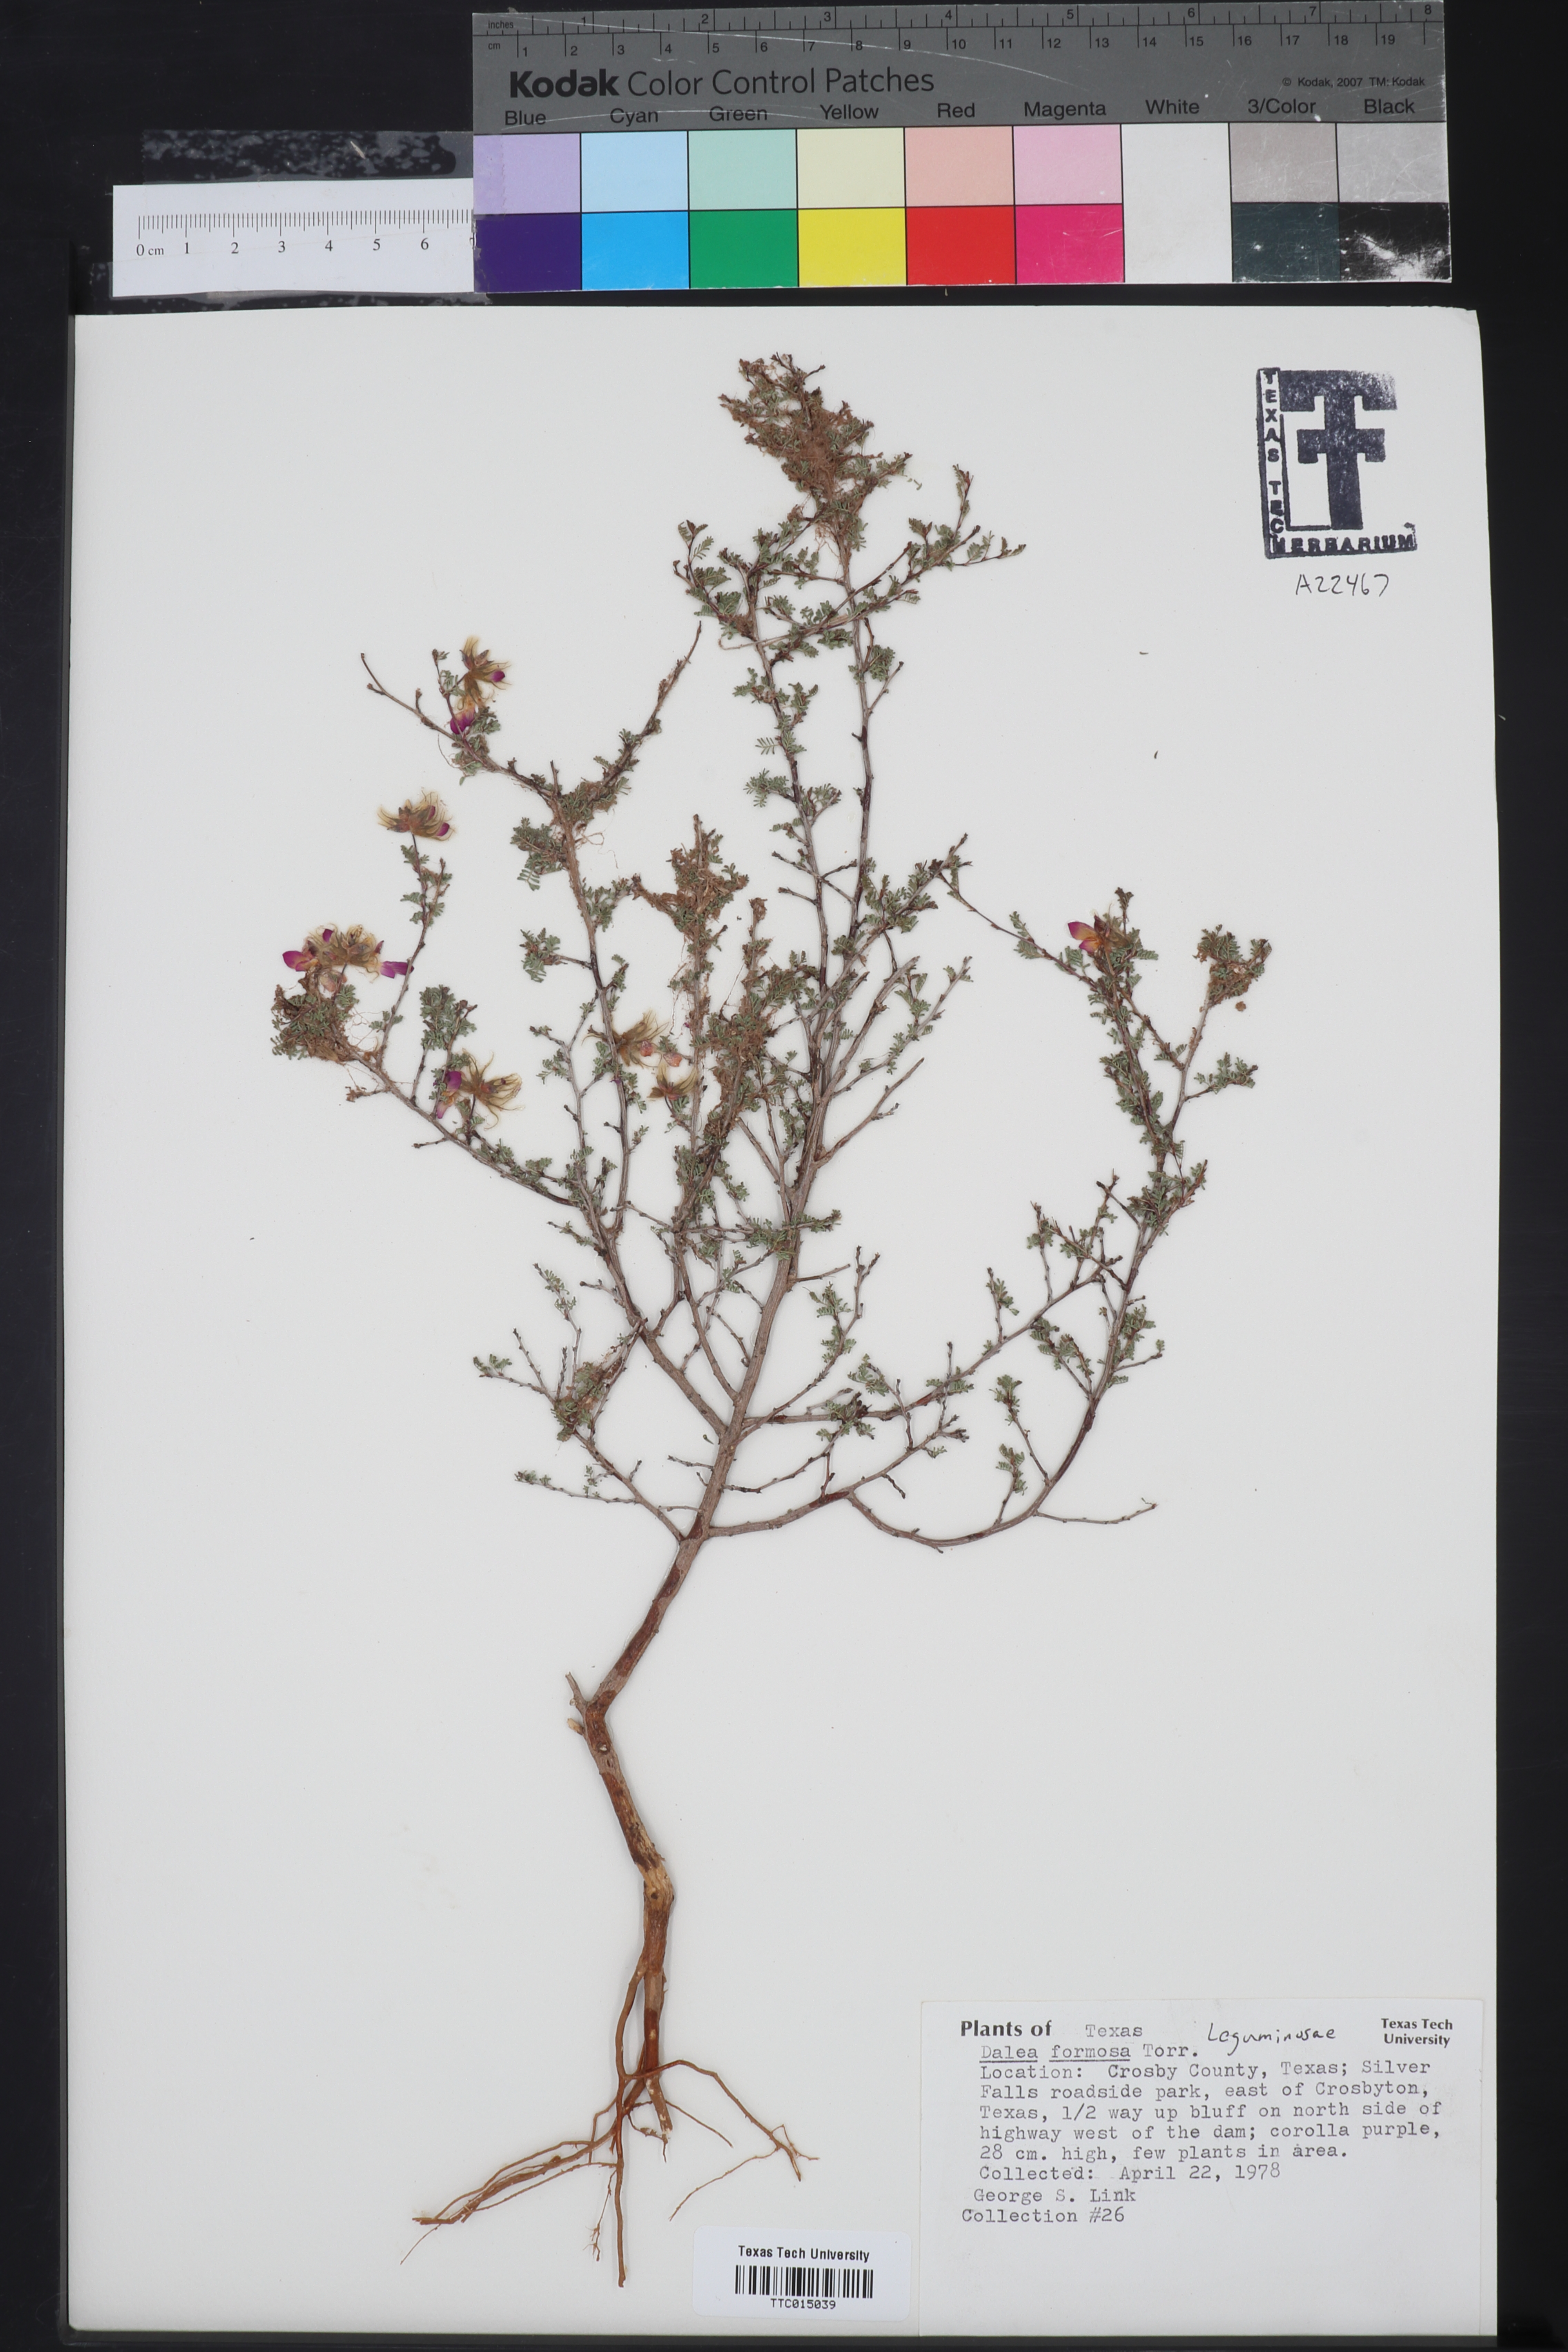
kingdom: Plantae
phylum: Tracheophyta
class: Magnoliopsida
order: Fabales
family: Fabaceae
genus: Dalea
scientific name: Dalea formosa
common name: Feather-plume dalea
